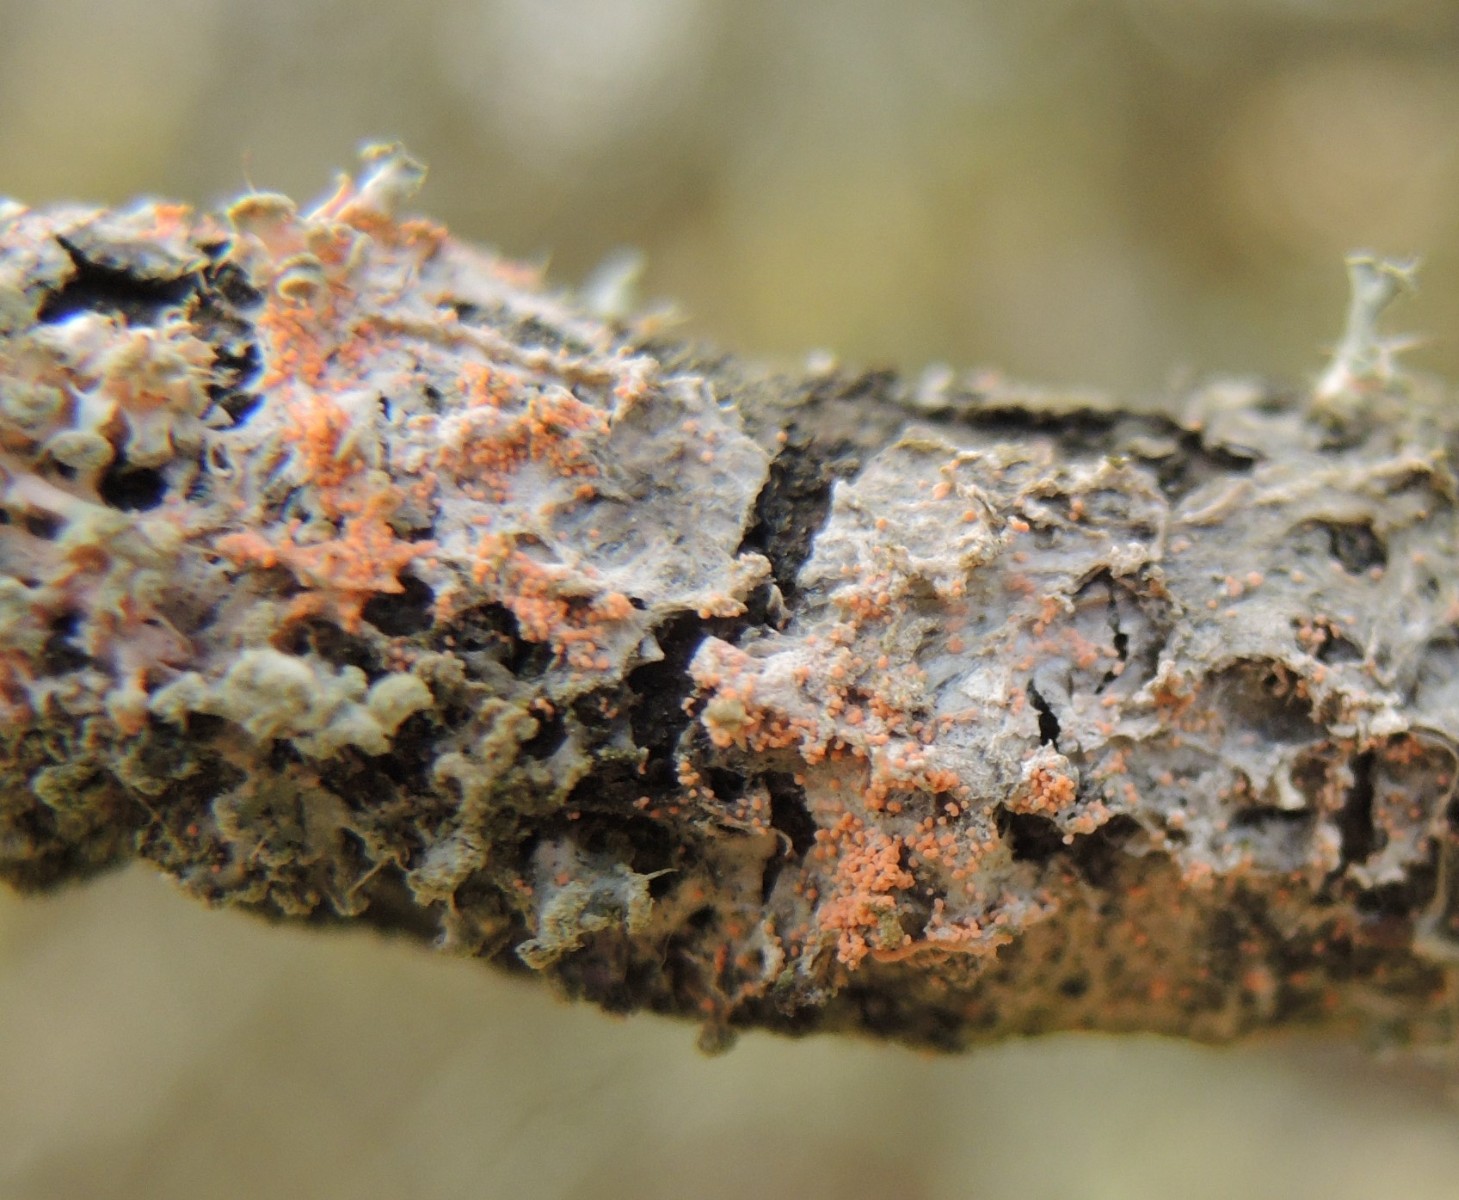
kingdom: Fungi
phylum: Basidiomycota
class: Agaricomycetes
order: Corticiales
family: Corticiaceae
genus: Erythricium
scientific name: Erythricium aurantiacum
